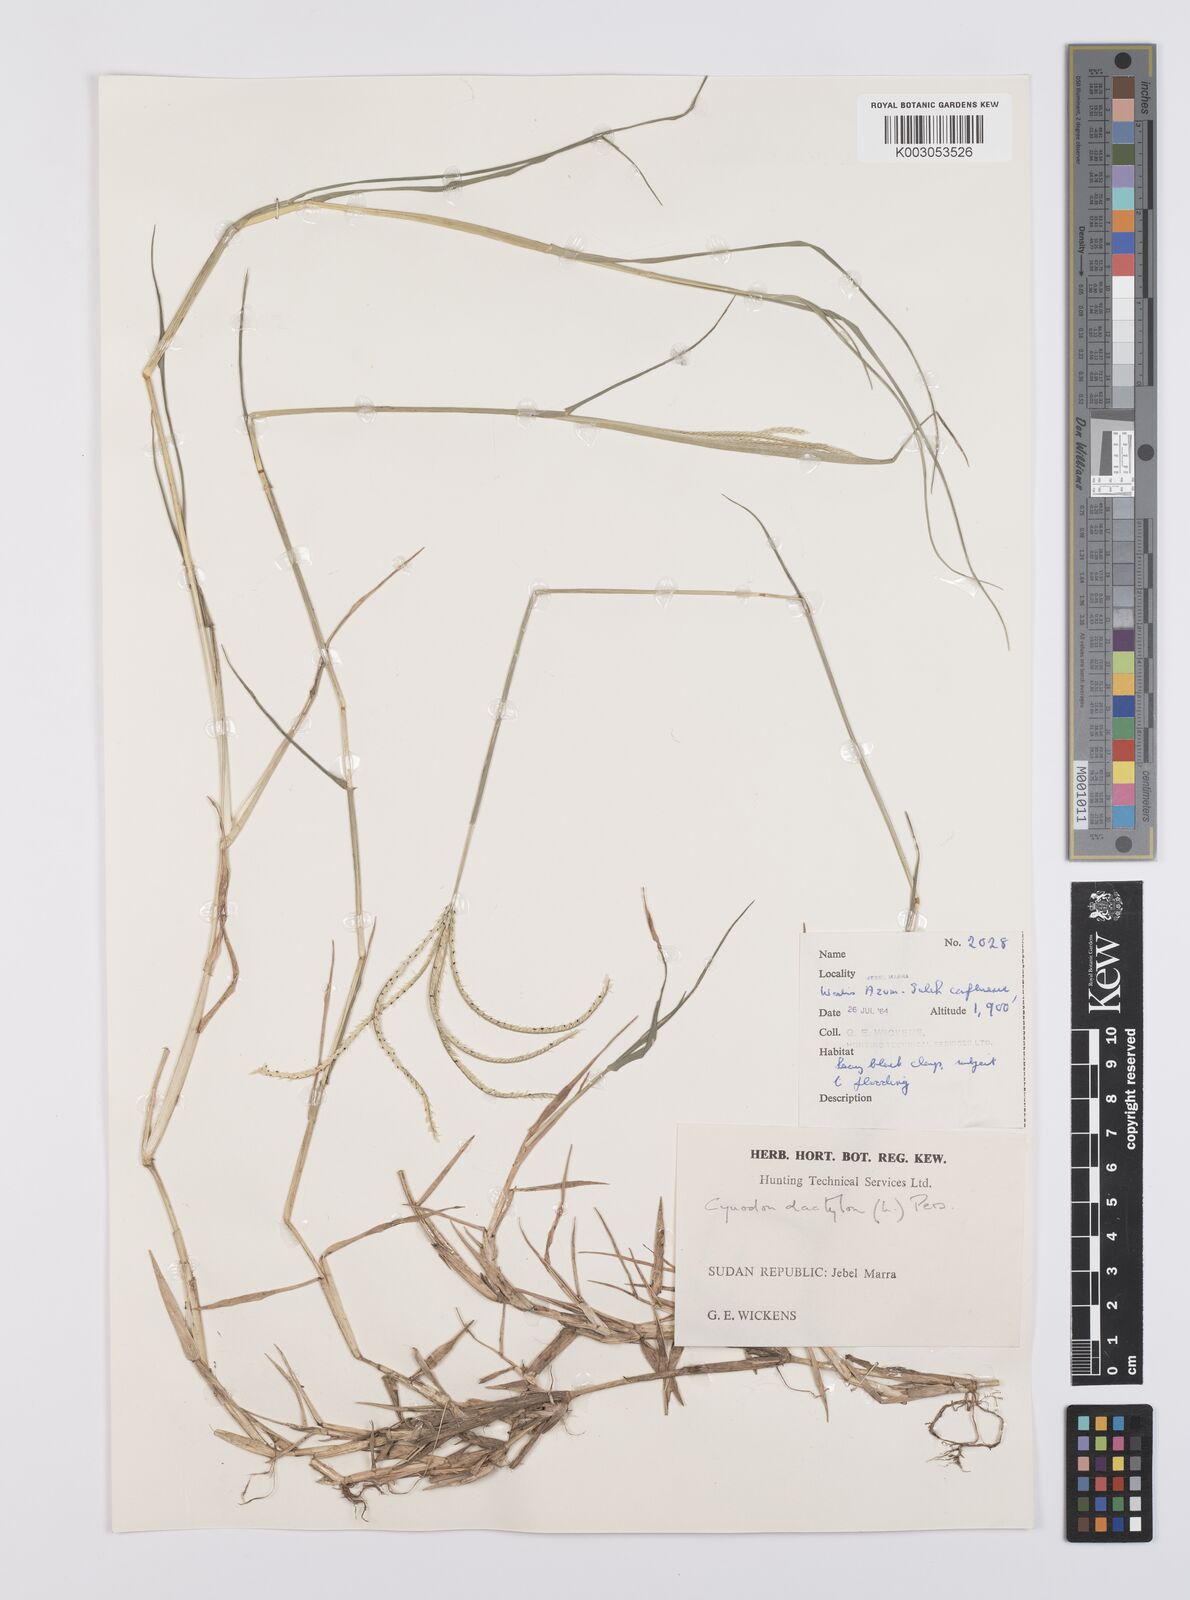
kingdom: Plantae
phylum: Tracheophyta
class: Liliopsida
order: Poales
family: Poaceae
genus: Cynodon
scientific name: Cynodon dactylon
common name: Bermuda grass
